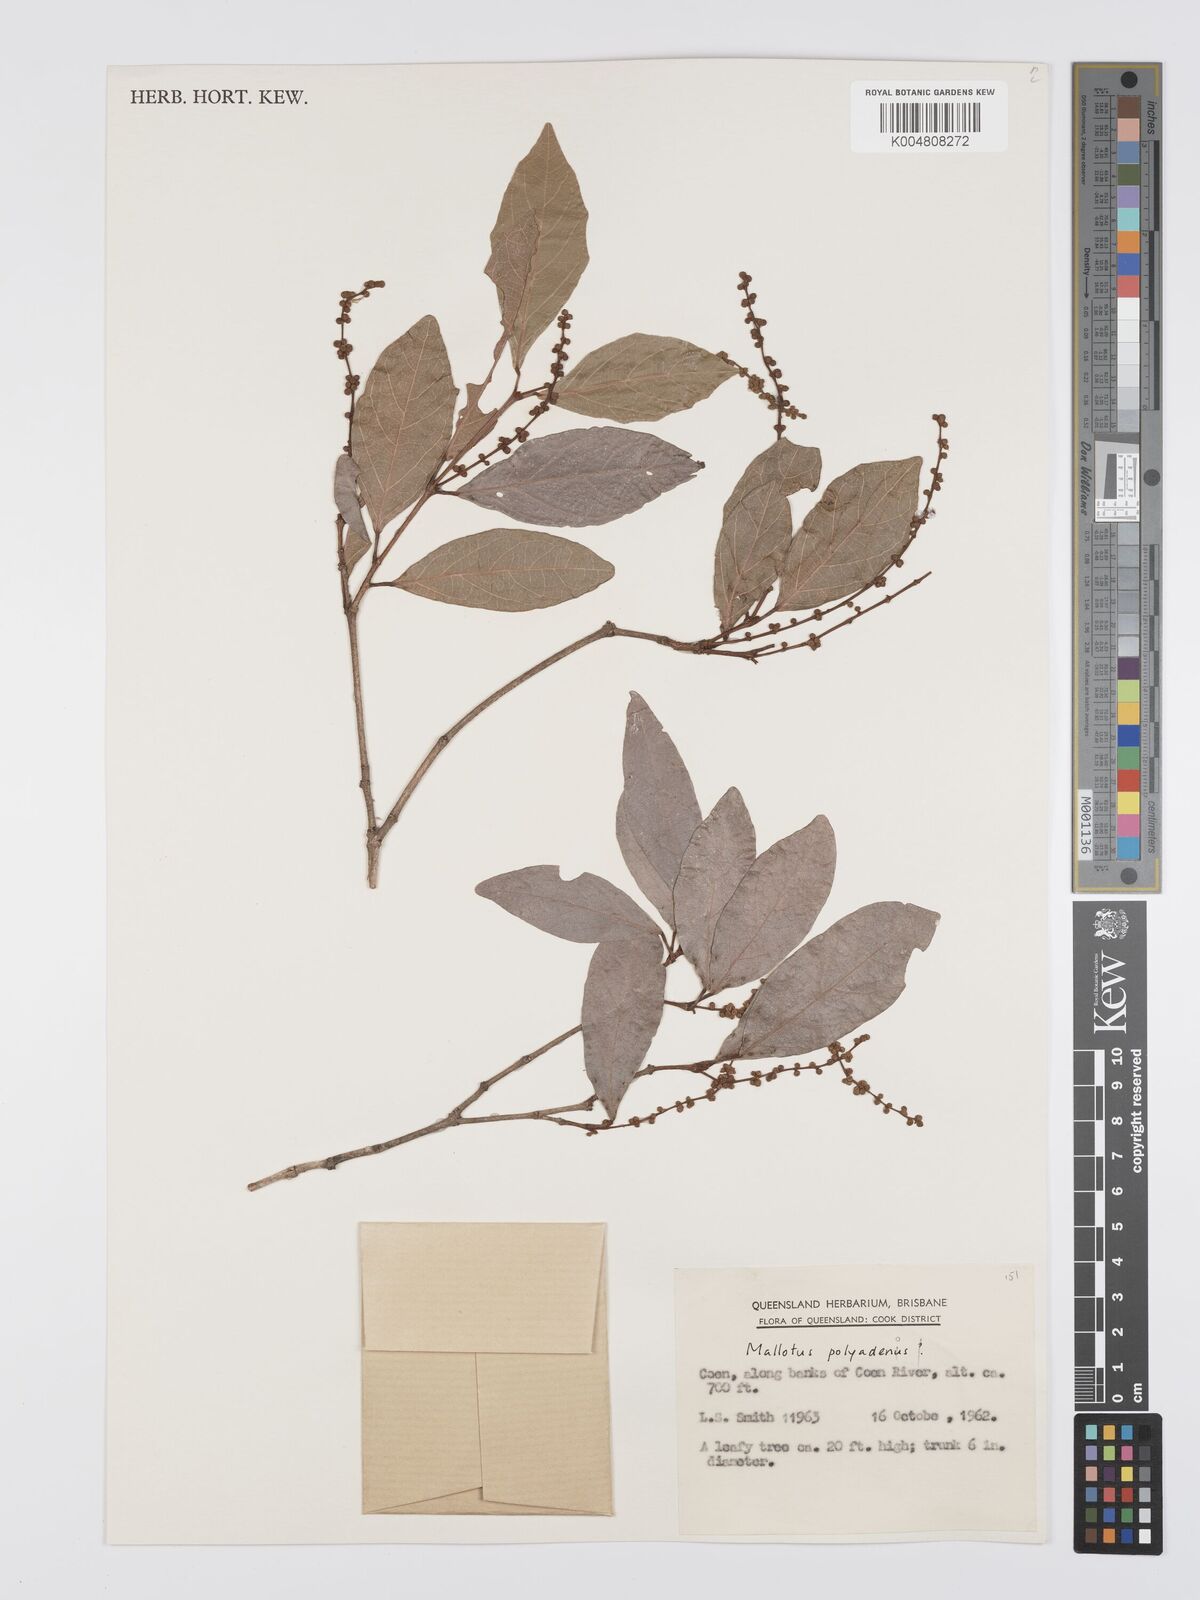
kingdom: Plantae
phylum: Tracheophyta
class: Magnoliopsida
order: Malpighiales
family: Euphorbiaceae
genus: Mallotus
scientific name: Mallotus polyadenos
